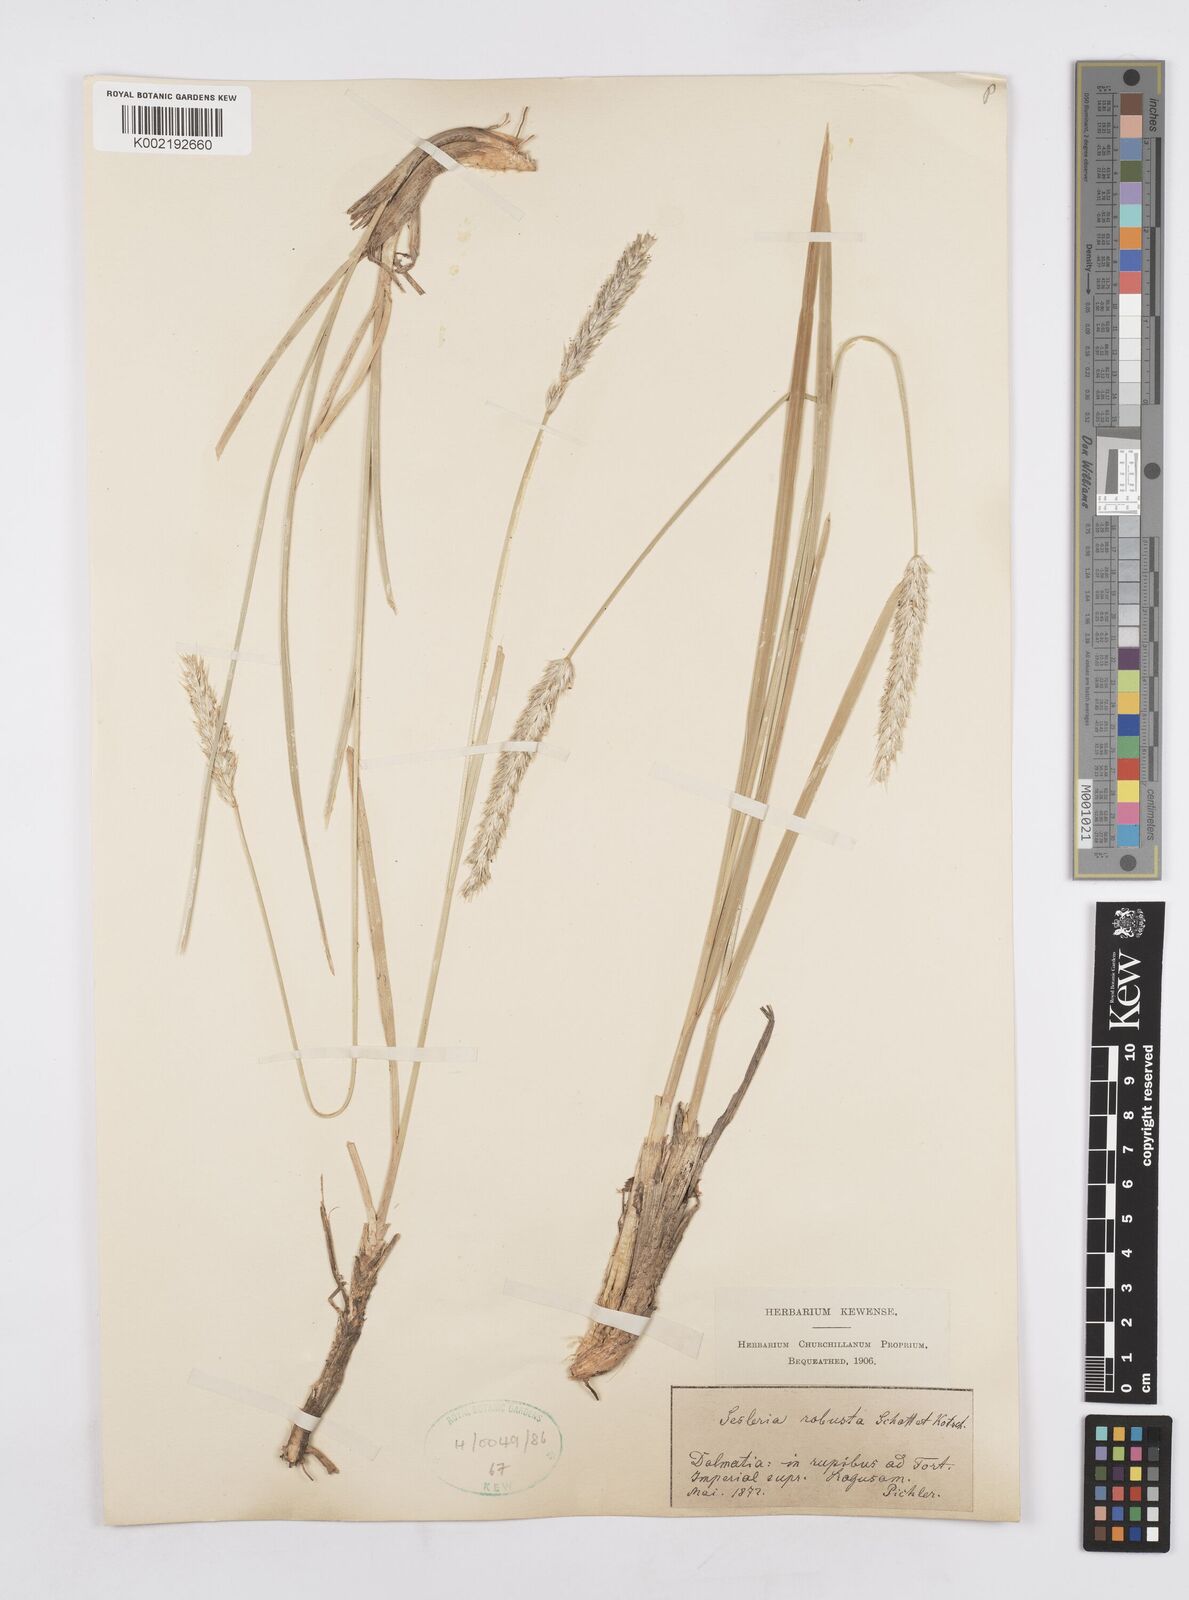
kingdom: Plantae
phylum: Tracheophyta
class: Liliopsida
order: Poales
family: Poaceae
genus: Sesleria
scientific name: Sesleria robusta
